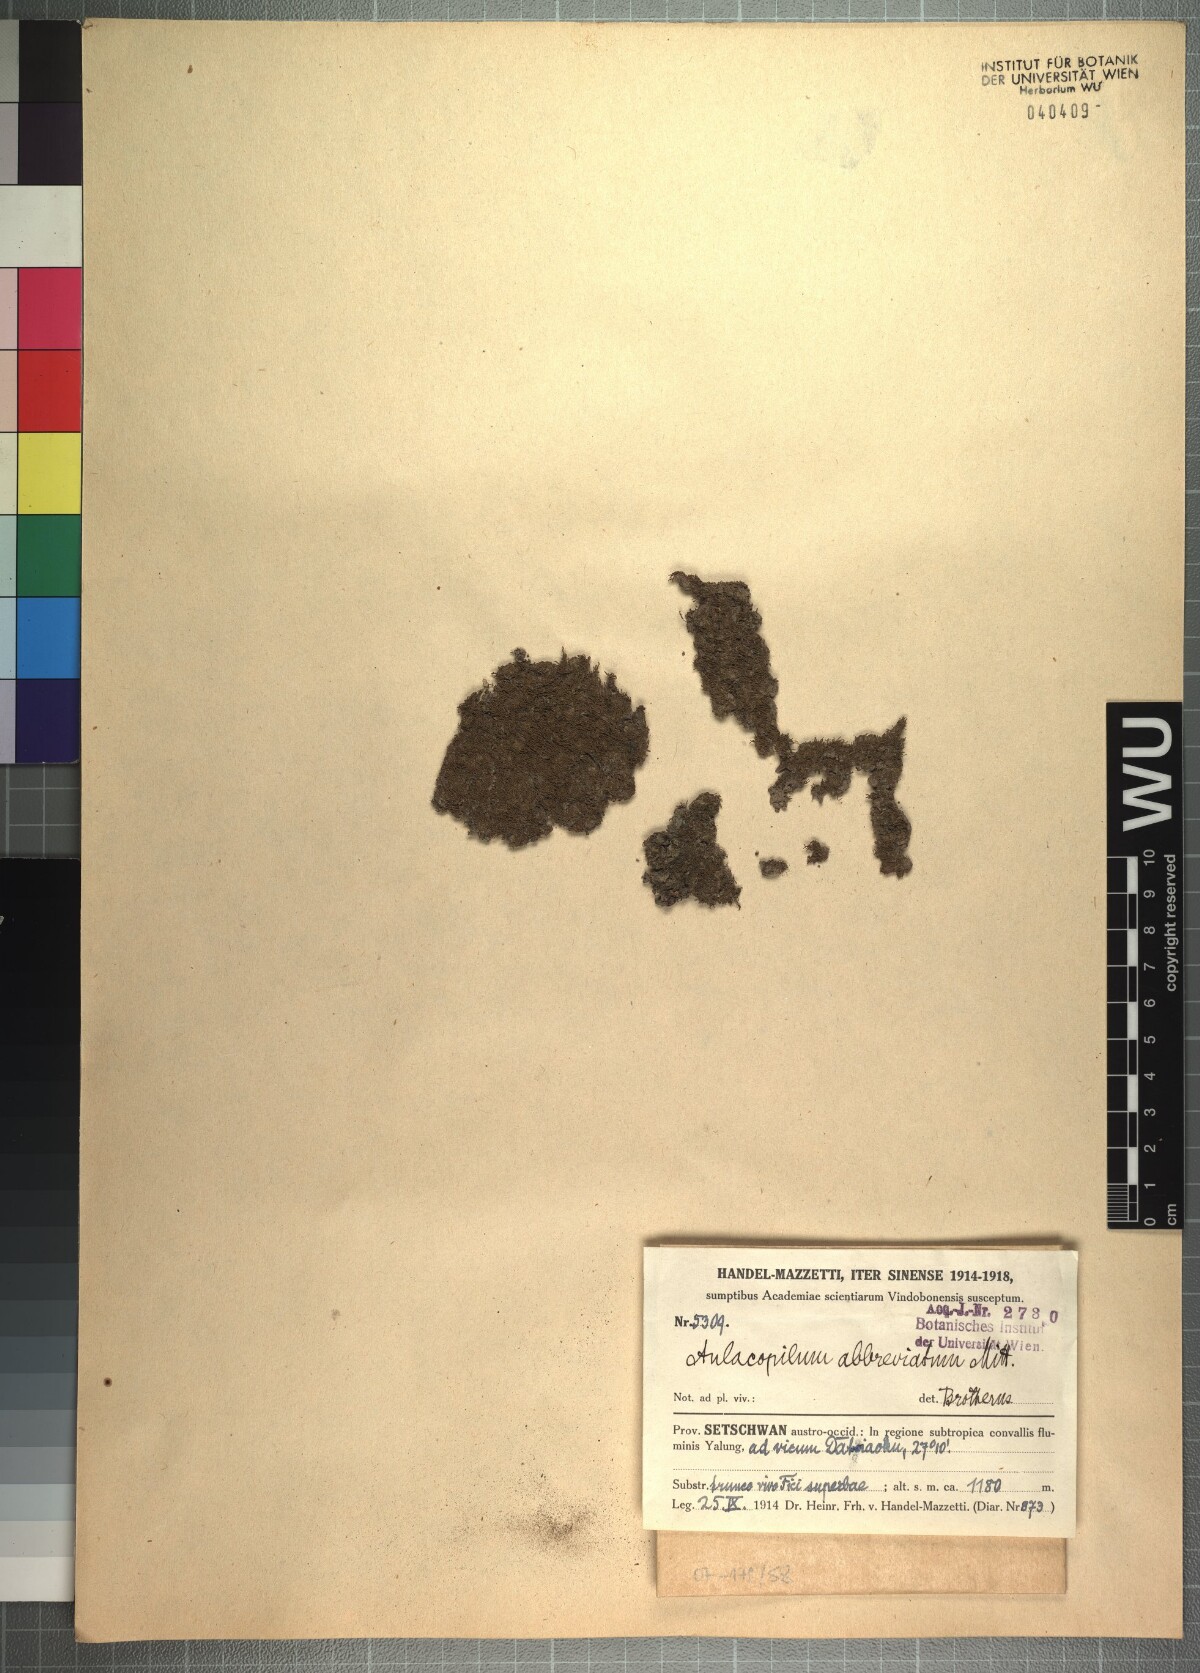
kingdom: Plantae
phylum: Bryophyta
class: Bryopsida
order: Dicranales
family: Erpodiaceae
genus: Aulacopilum
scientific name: Aulacopilum glaucum
